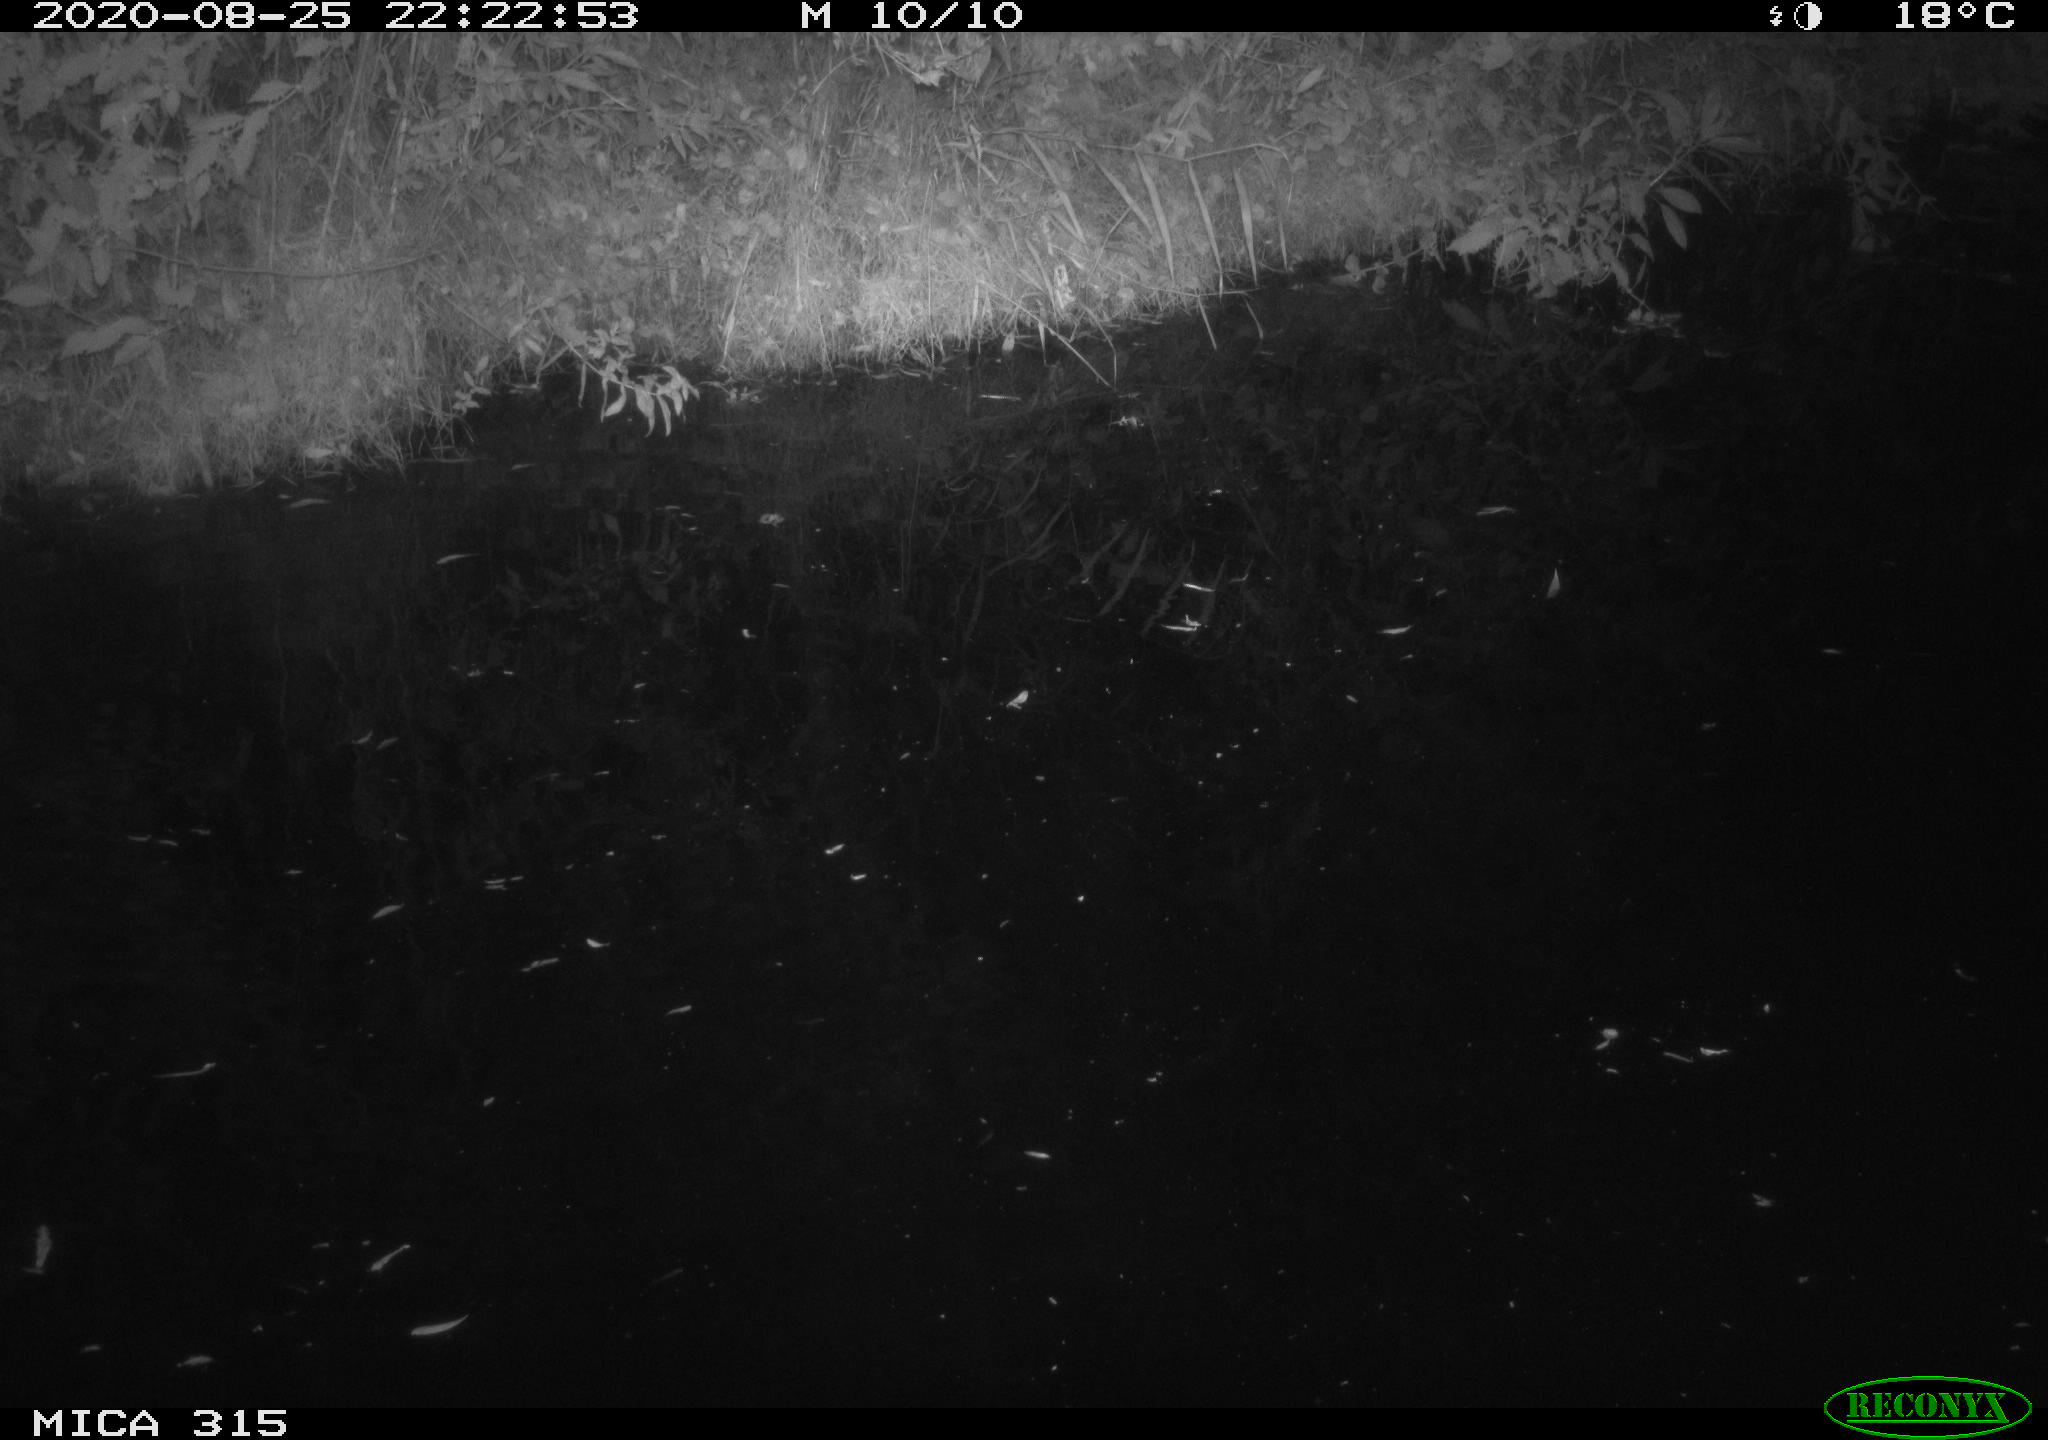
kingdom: Animalia
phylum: Chordata
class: Aves
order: Anseriformes
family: Anatidae
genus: Anas
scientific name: Anas platyrhynchos
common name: Mallard
